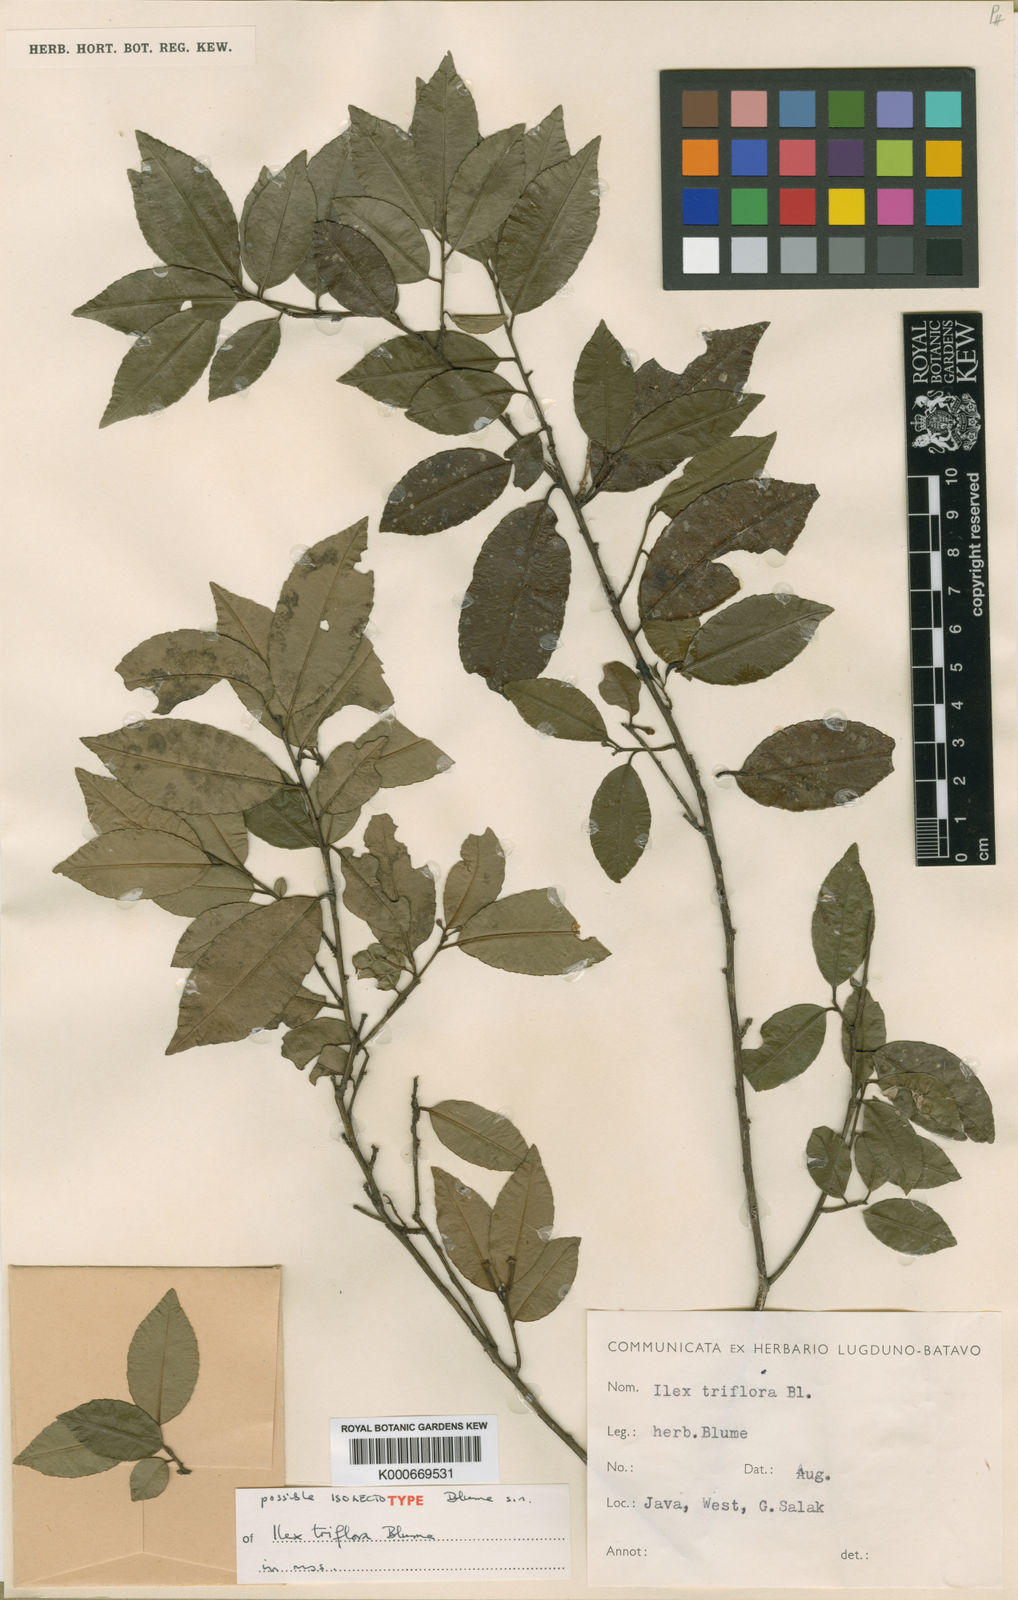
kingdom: Plantae
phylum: Tracheophyta
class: Magnoliopsida
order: Aquifoliales
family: Aquifoliaceae
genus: Ilex
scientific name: Ilex triflora
